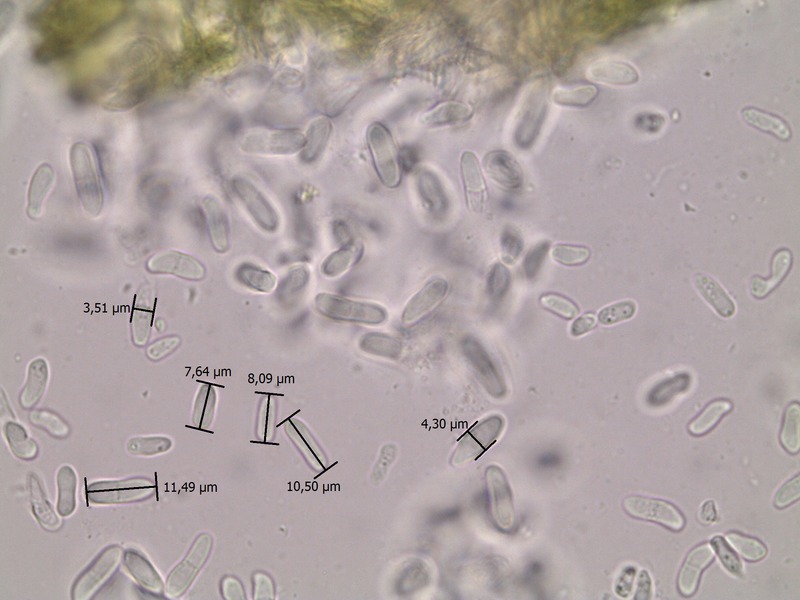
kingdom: Fungi
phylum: Ascomycota
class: Dothideomycetes
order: Pleosporales
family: Didymellaceae
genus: Ascochyta
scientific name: Ascochyta
